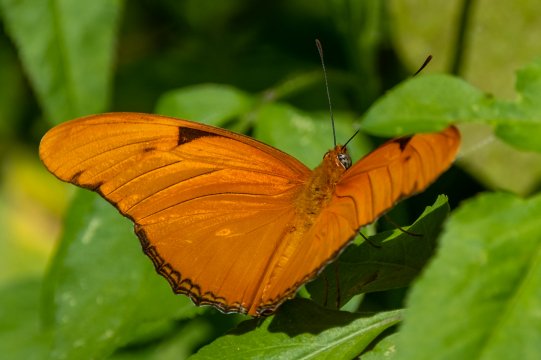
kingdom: Animalia
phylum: Arthropoda
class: Insecta
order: Lepidoptera
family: Nymphalidae
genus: Dryas
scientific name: Dryas iulia
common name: Julia
